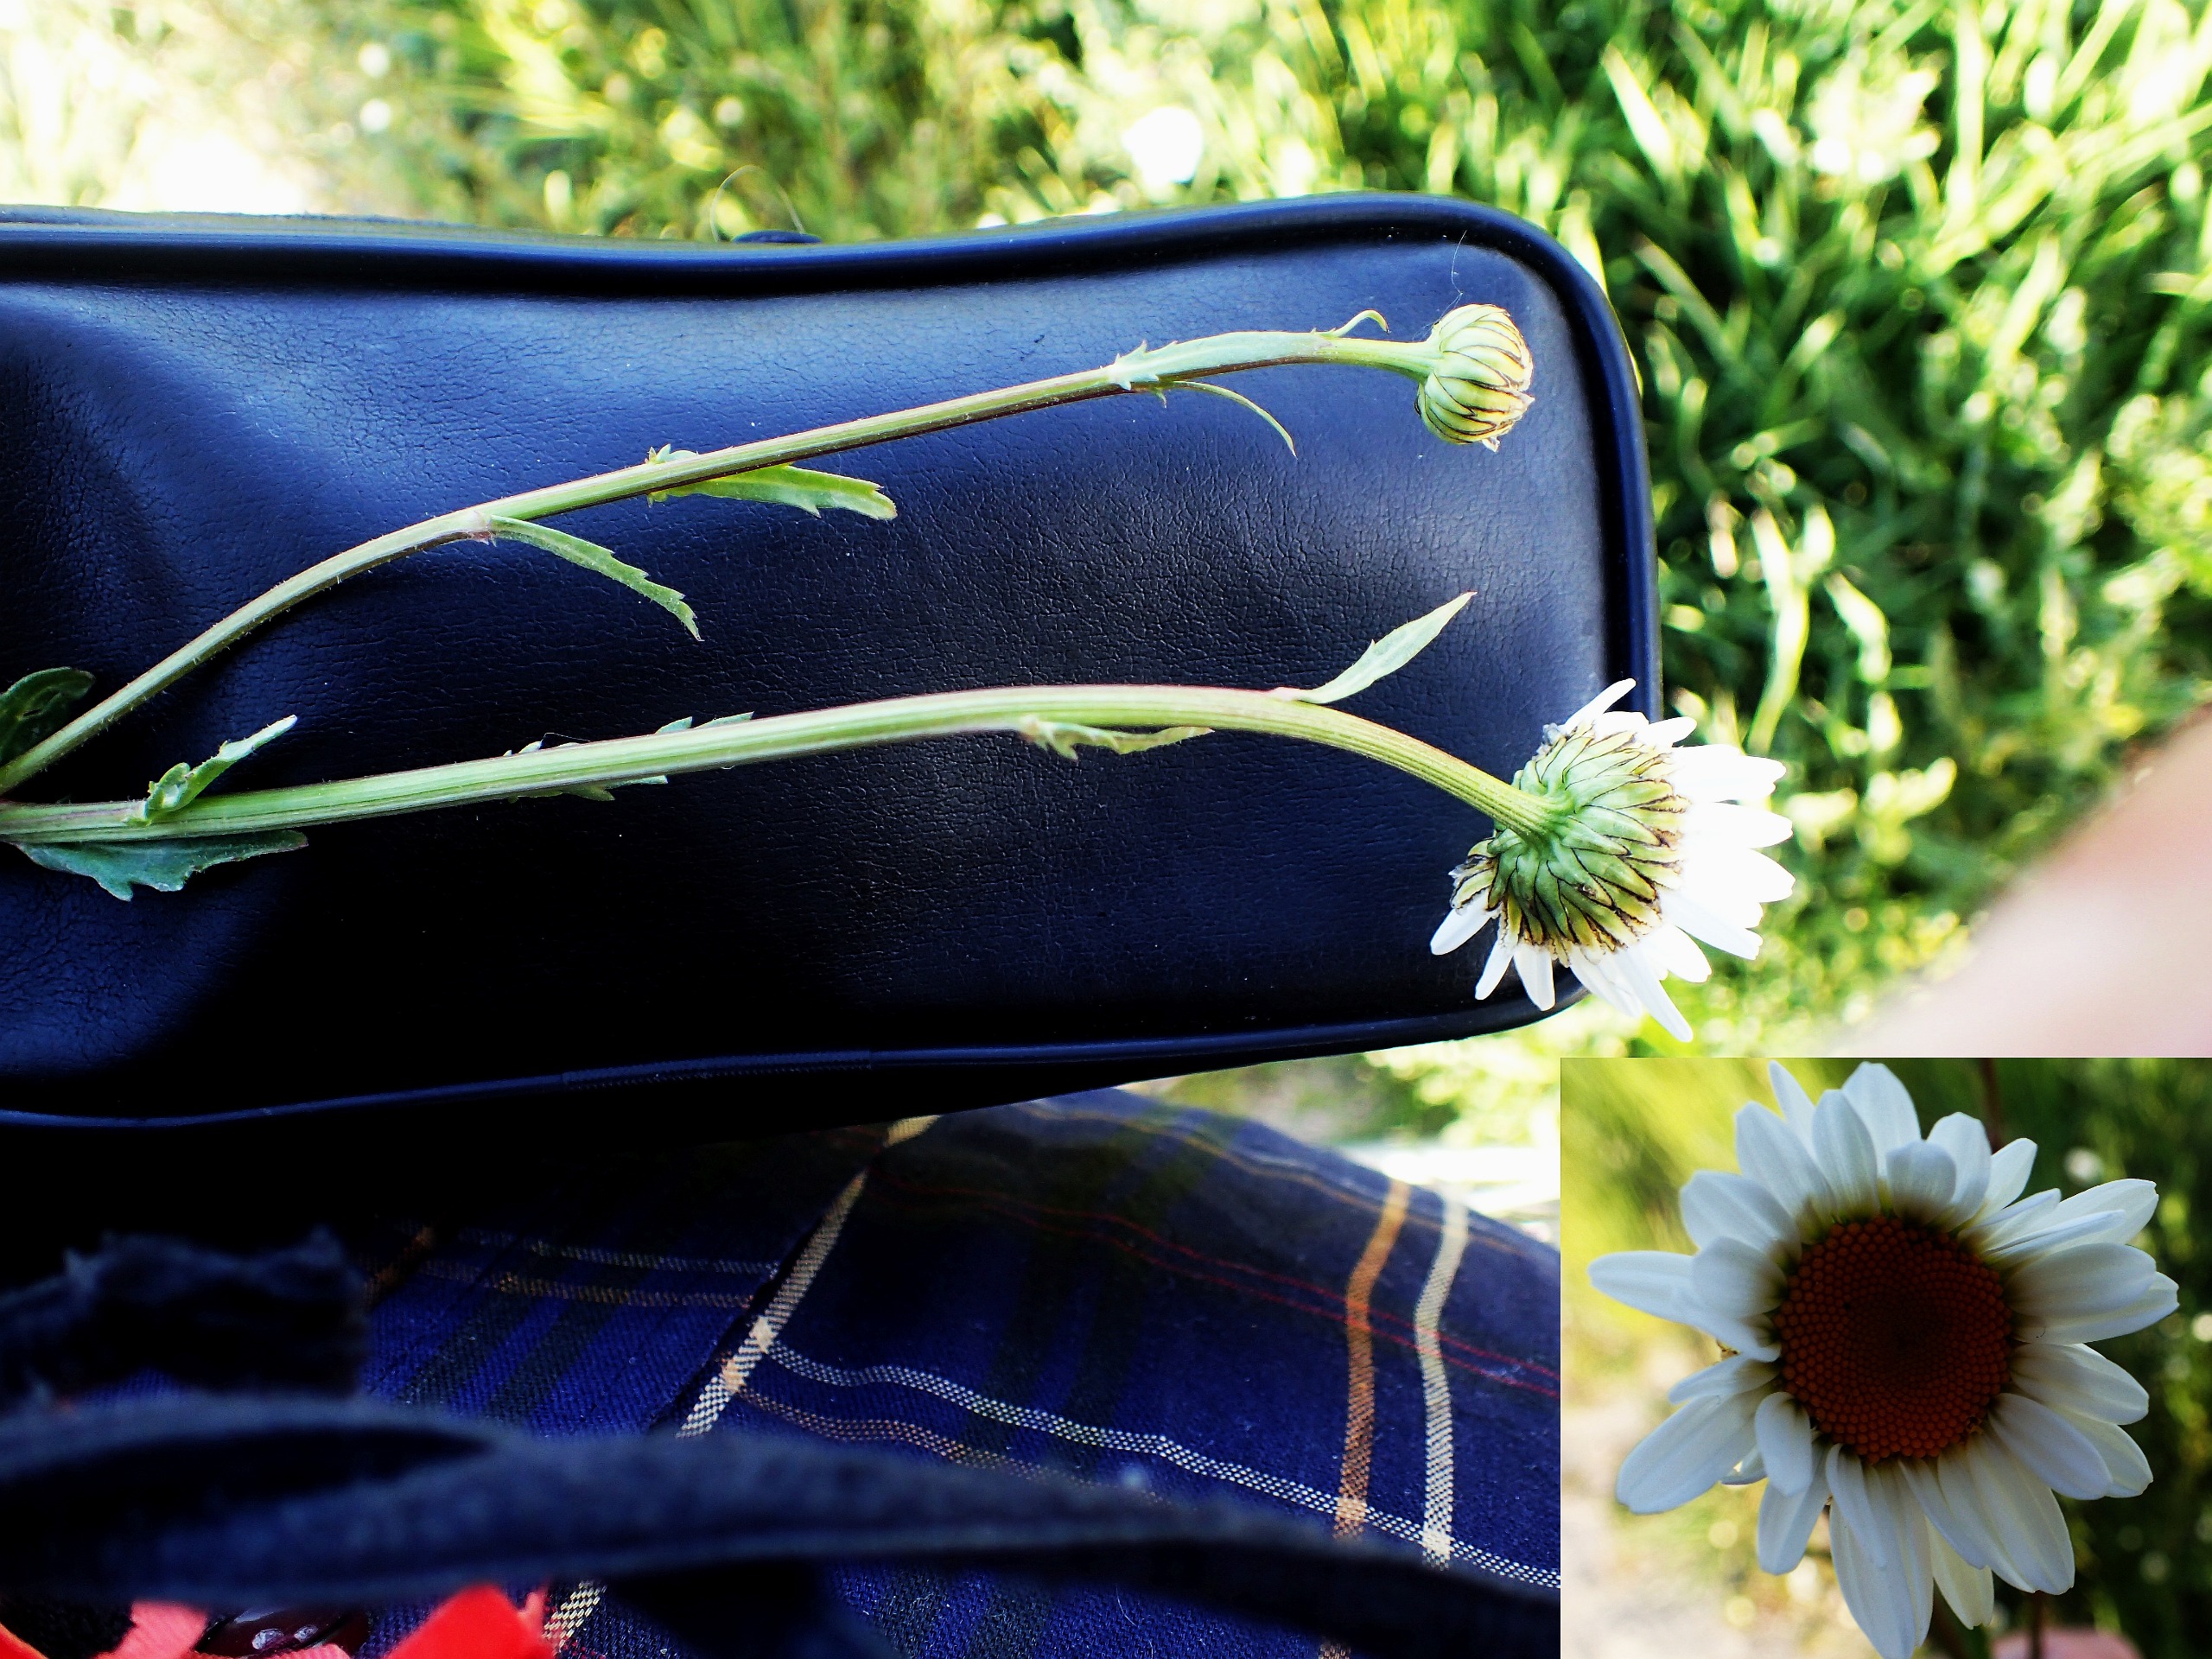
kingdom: Plantae
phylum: Tracheophyta
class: Magnoliopsida
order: Asterales
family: Asteraceae
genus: Leucanthemum
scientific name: Leucanthemum vulgare
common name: Hvid okseøje
